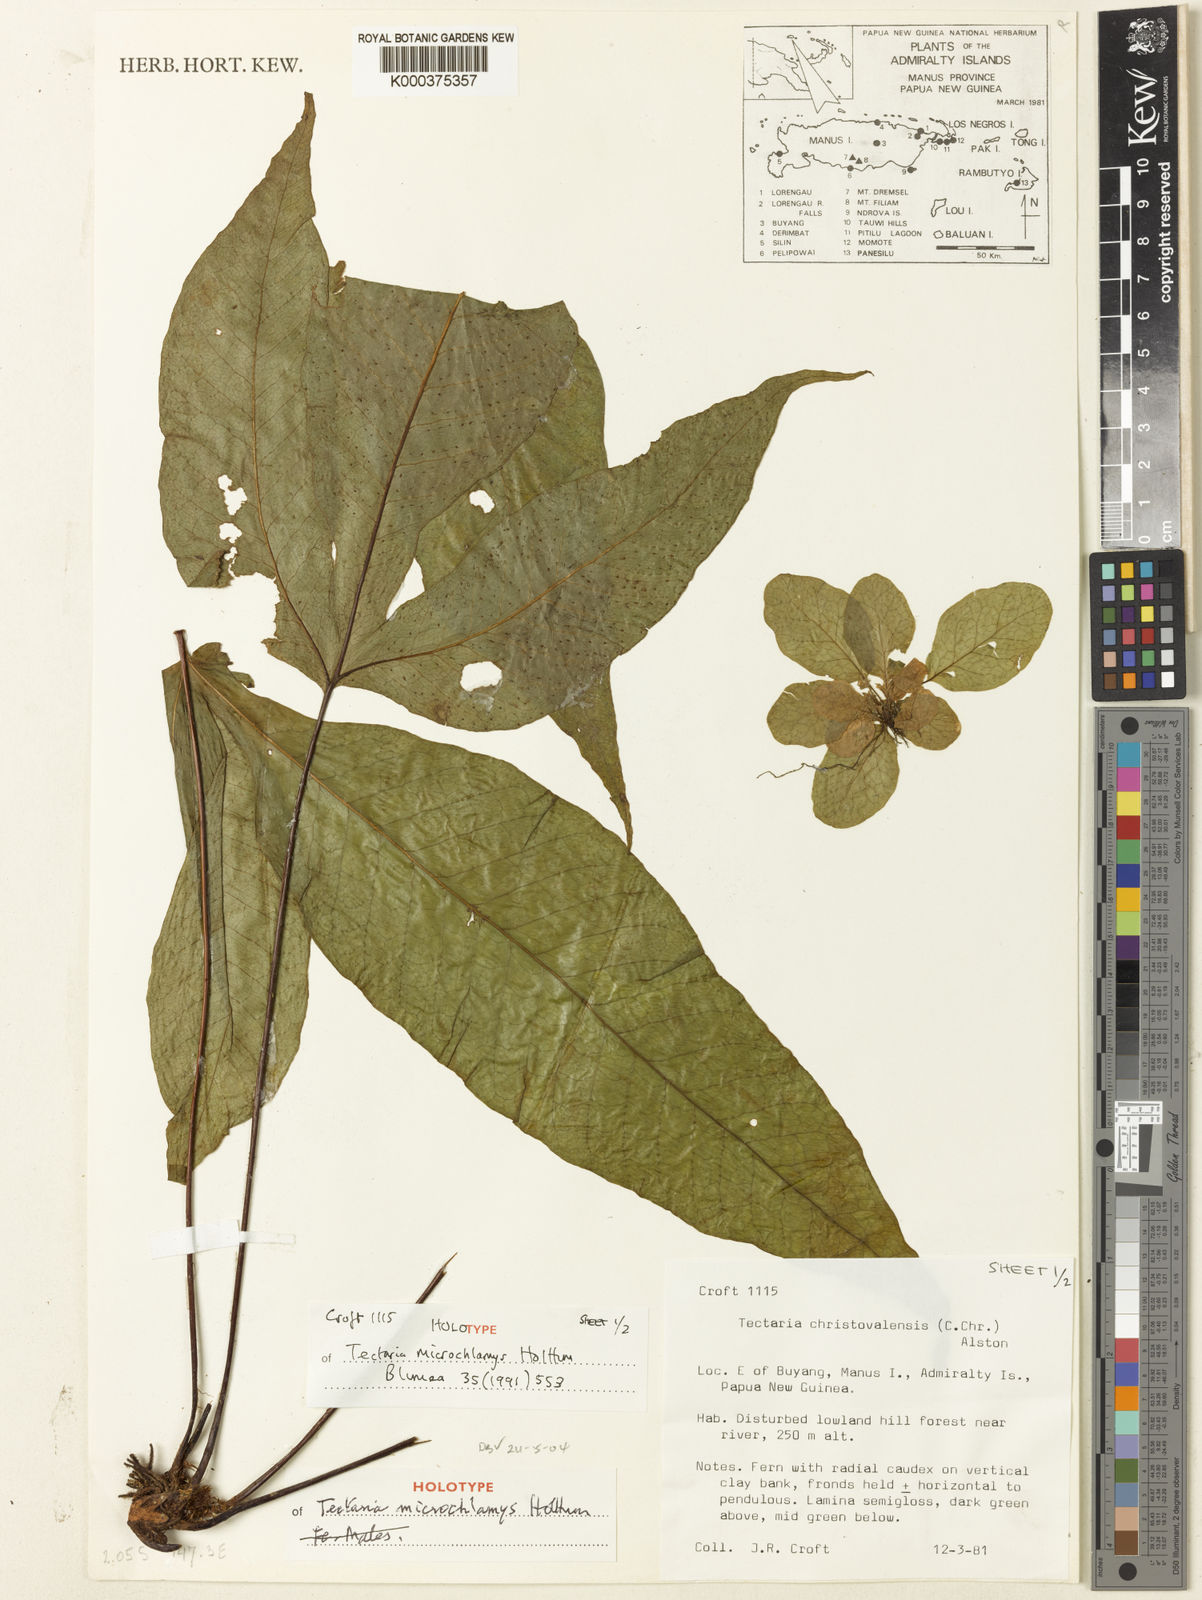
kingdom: Plantae
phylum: Tracheophyta
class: Polypodiopsida
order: Polypodiales
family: Tectariaceae
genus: Tectaria
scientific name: Tectaria microchlamys
